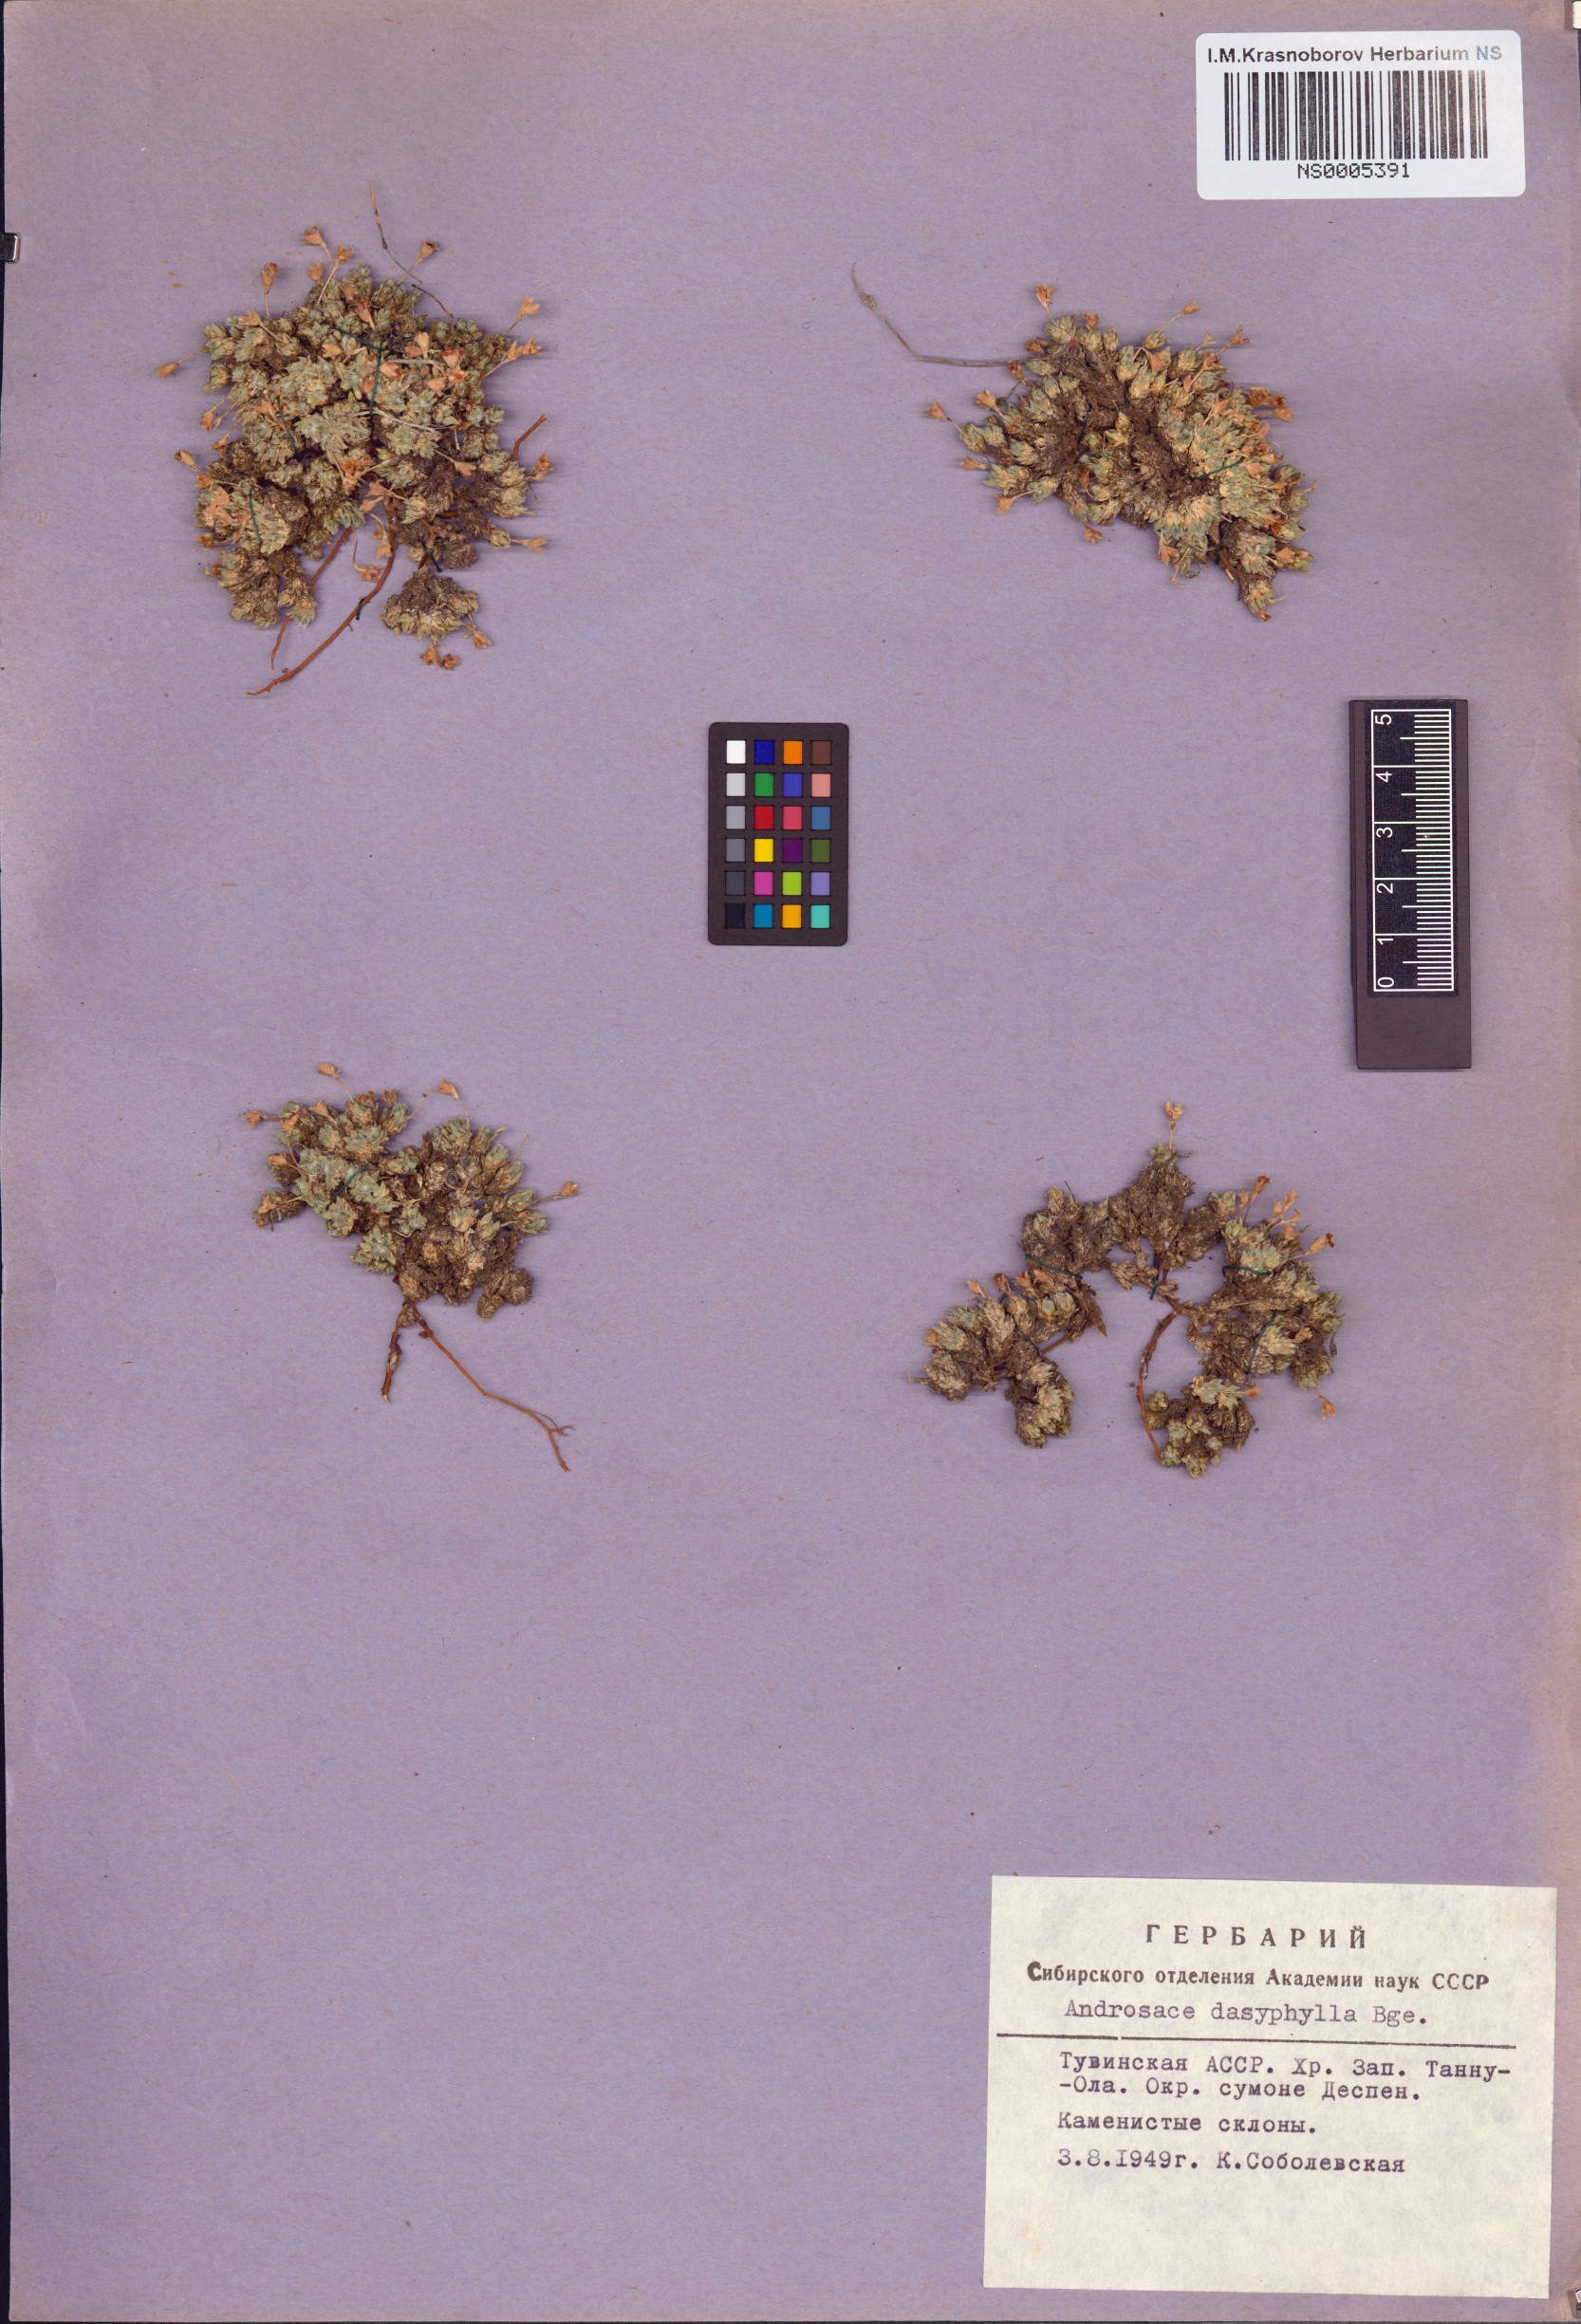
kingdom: Plantae
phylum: Tracheophyta
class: Magnoliopsida
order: Ericales
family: Primulaceae
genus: Androsace
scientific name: Androsace dasyphylla
